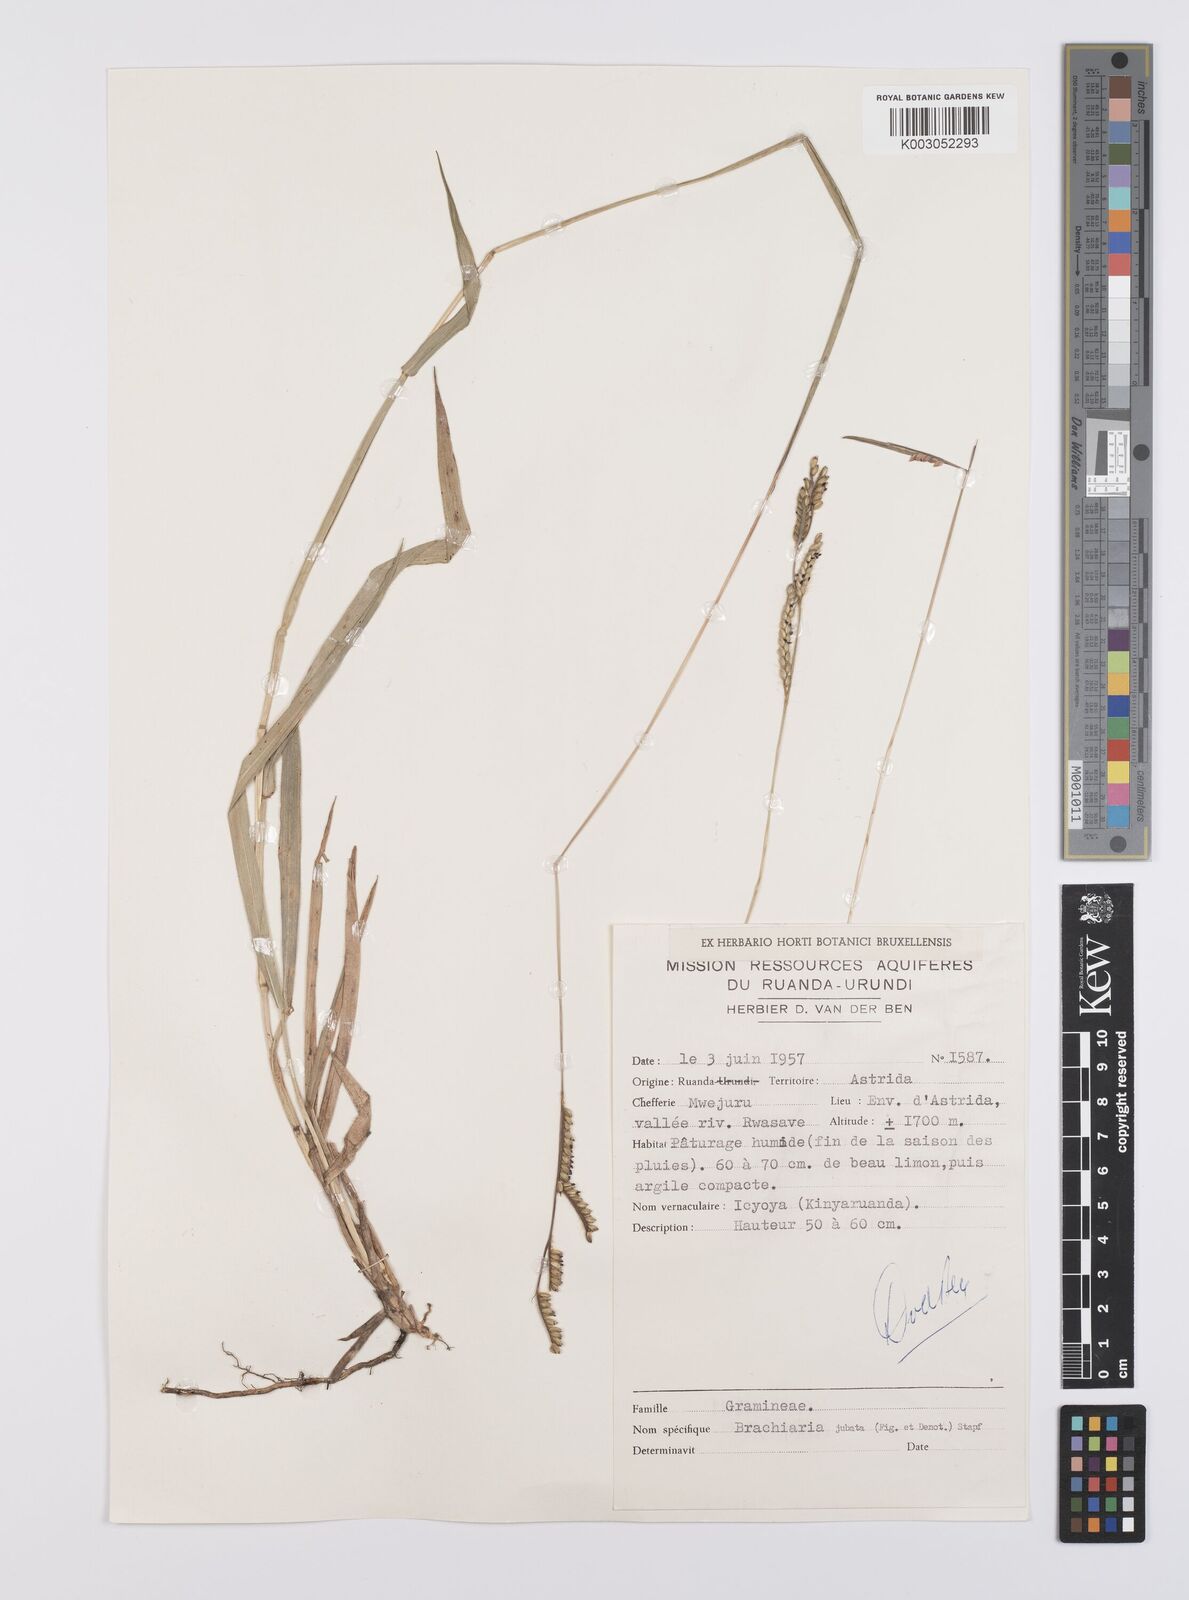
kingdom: Plantae
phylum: Tracheophyta
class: Liliopsida
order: Poales
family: Poaceae
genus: Urochloa
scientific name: Urochloa jubata
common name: Buffalograss
